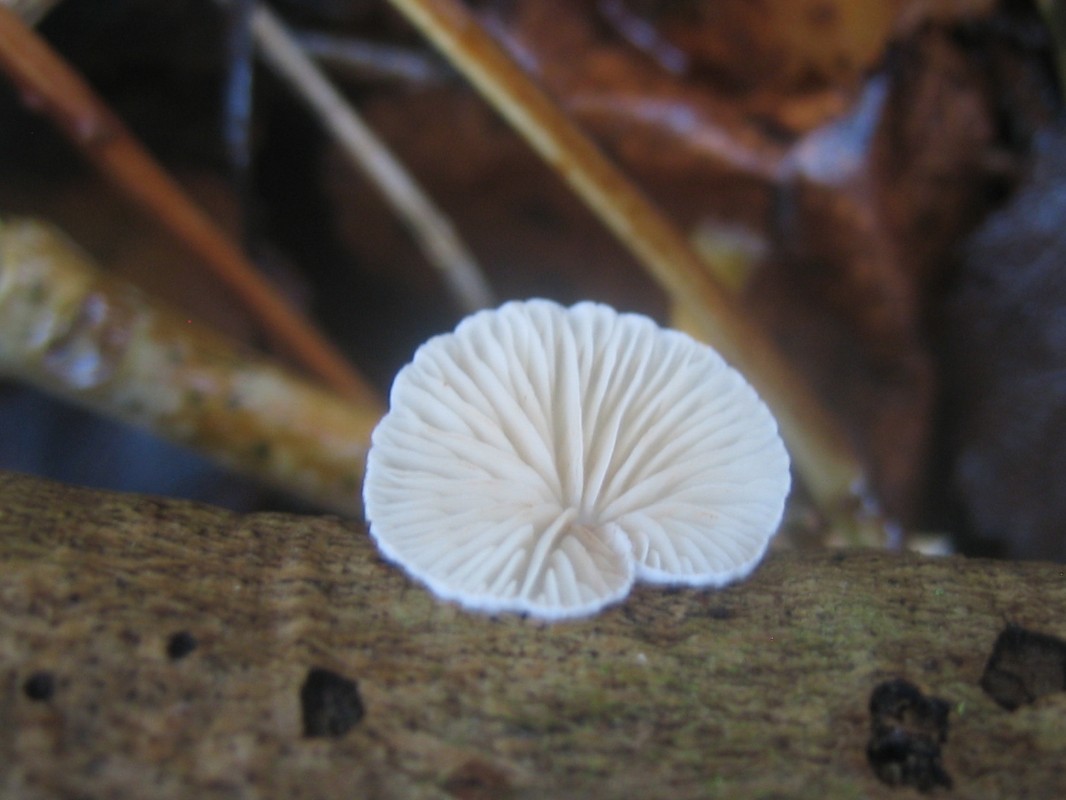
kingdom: Fungi
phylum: Basidiomycota
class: Agaricomycetes
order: Agaricales
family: Crepidotaceae
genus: Crepidotus
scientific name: Crepidotus
